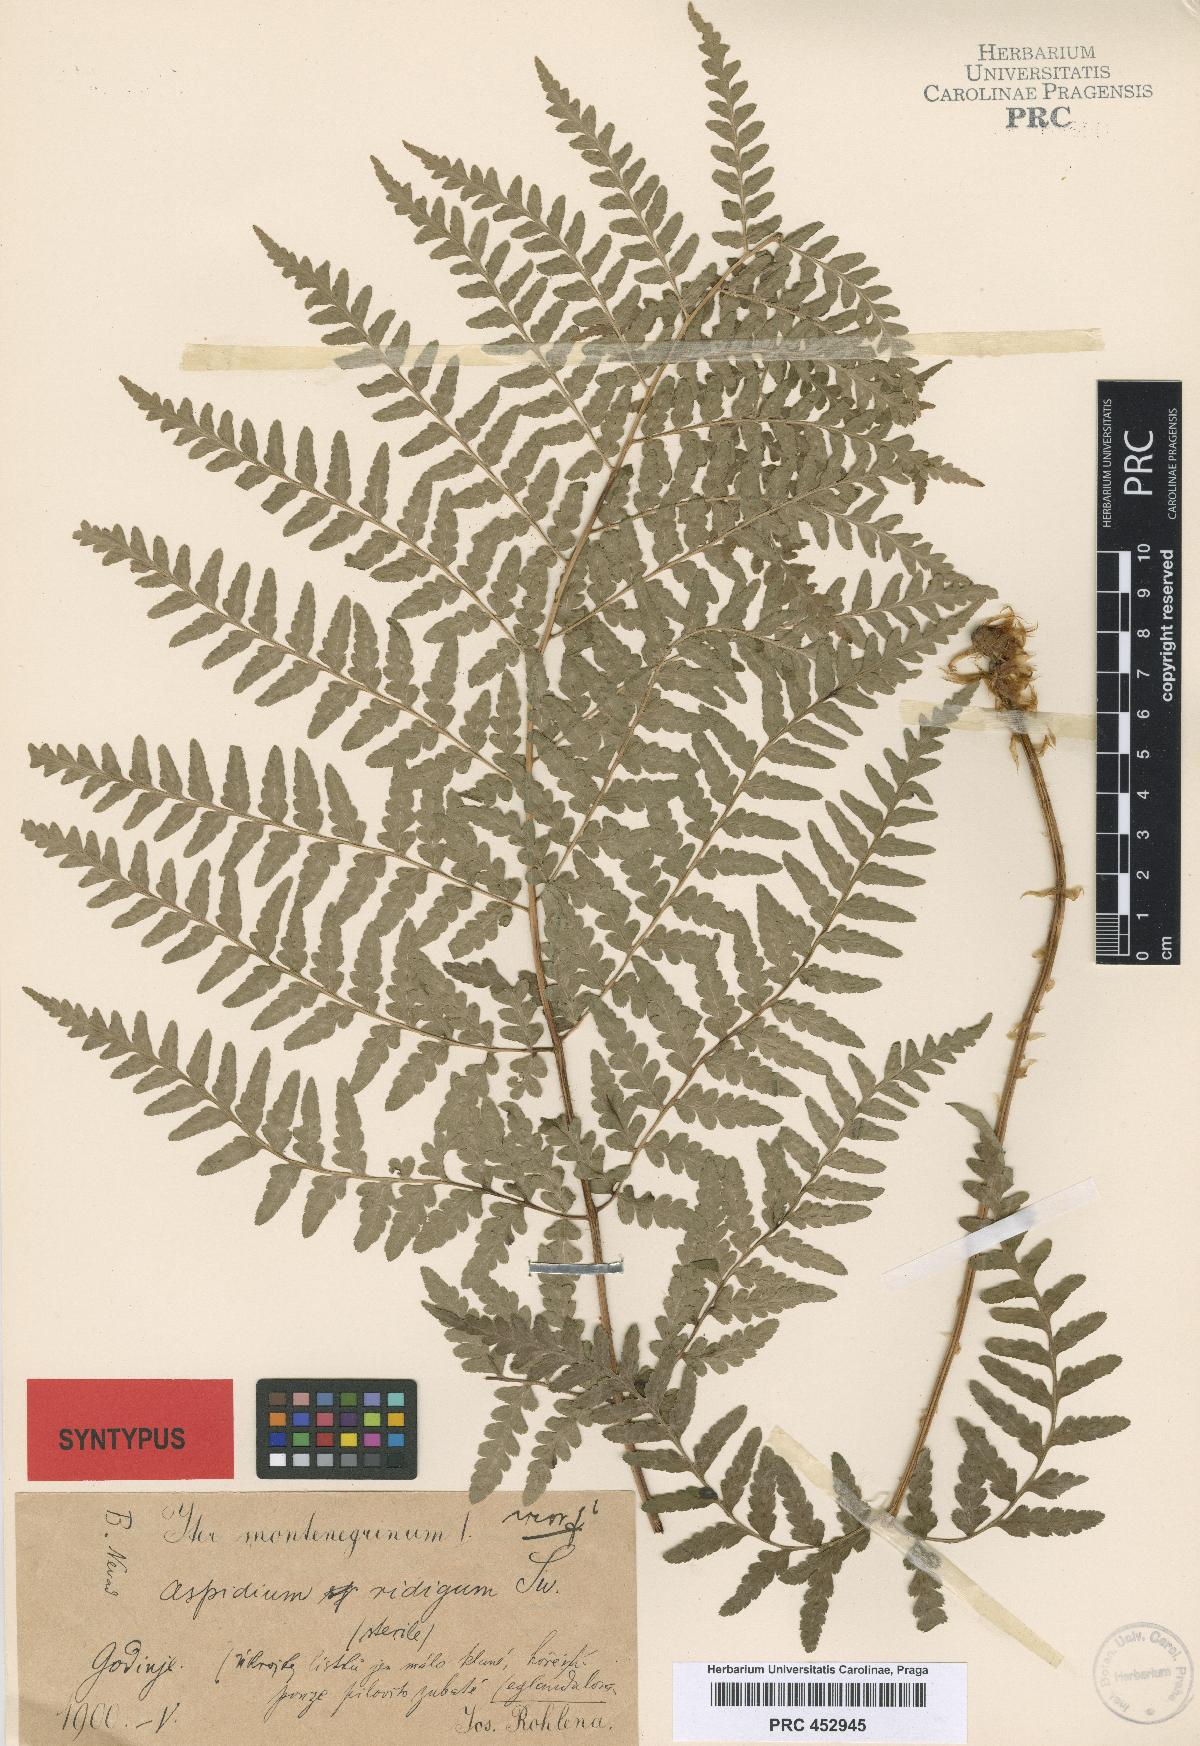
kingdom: Plantae
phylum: Tracheophyta
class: Polypodiopsida
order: Polypodiales
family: Dryopteridaceae
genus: Dryopteris
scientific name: Dryopteris villarii
